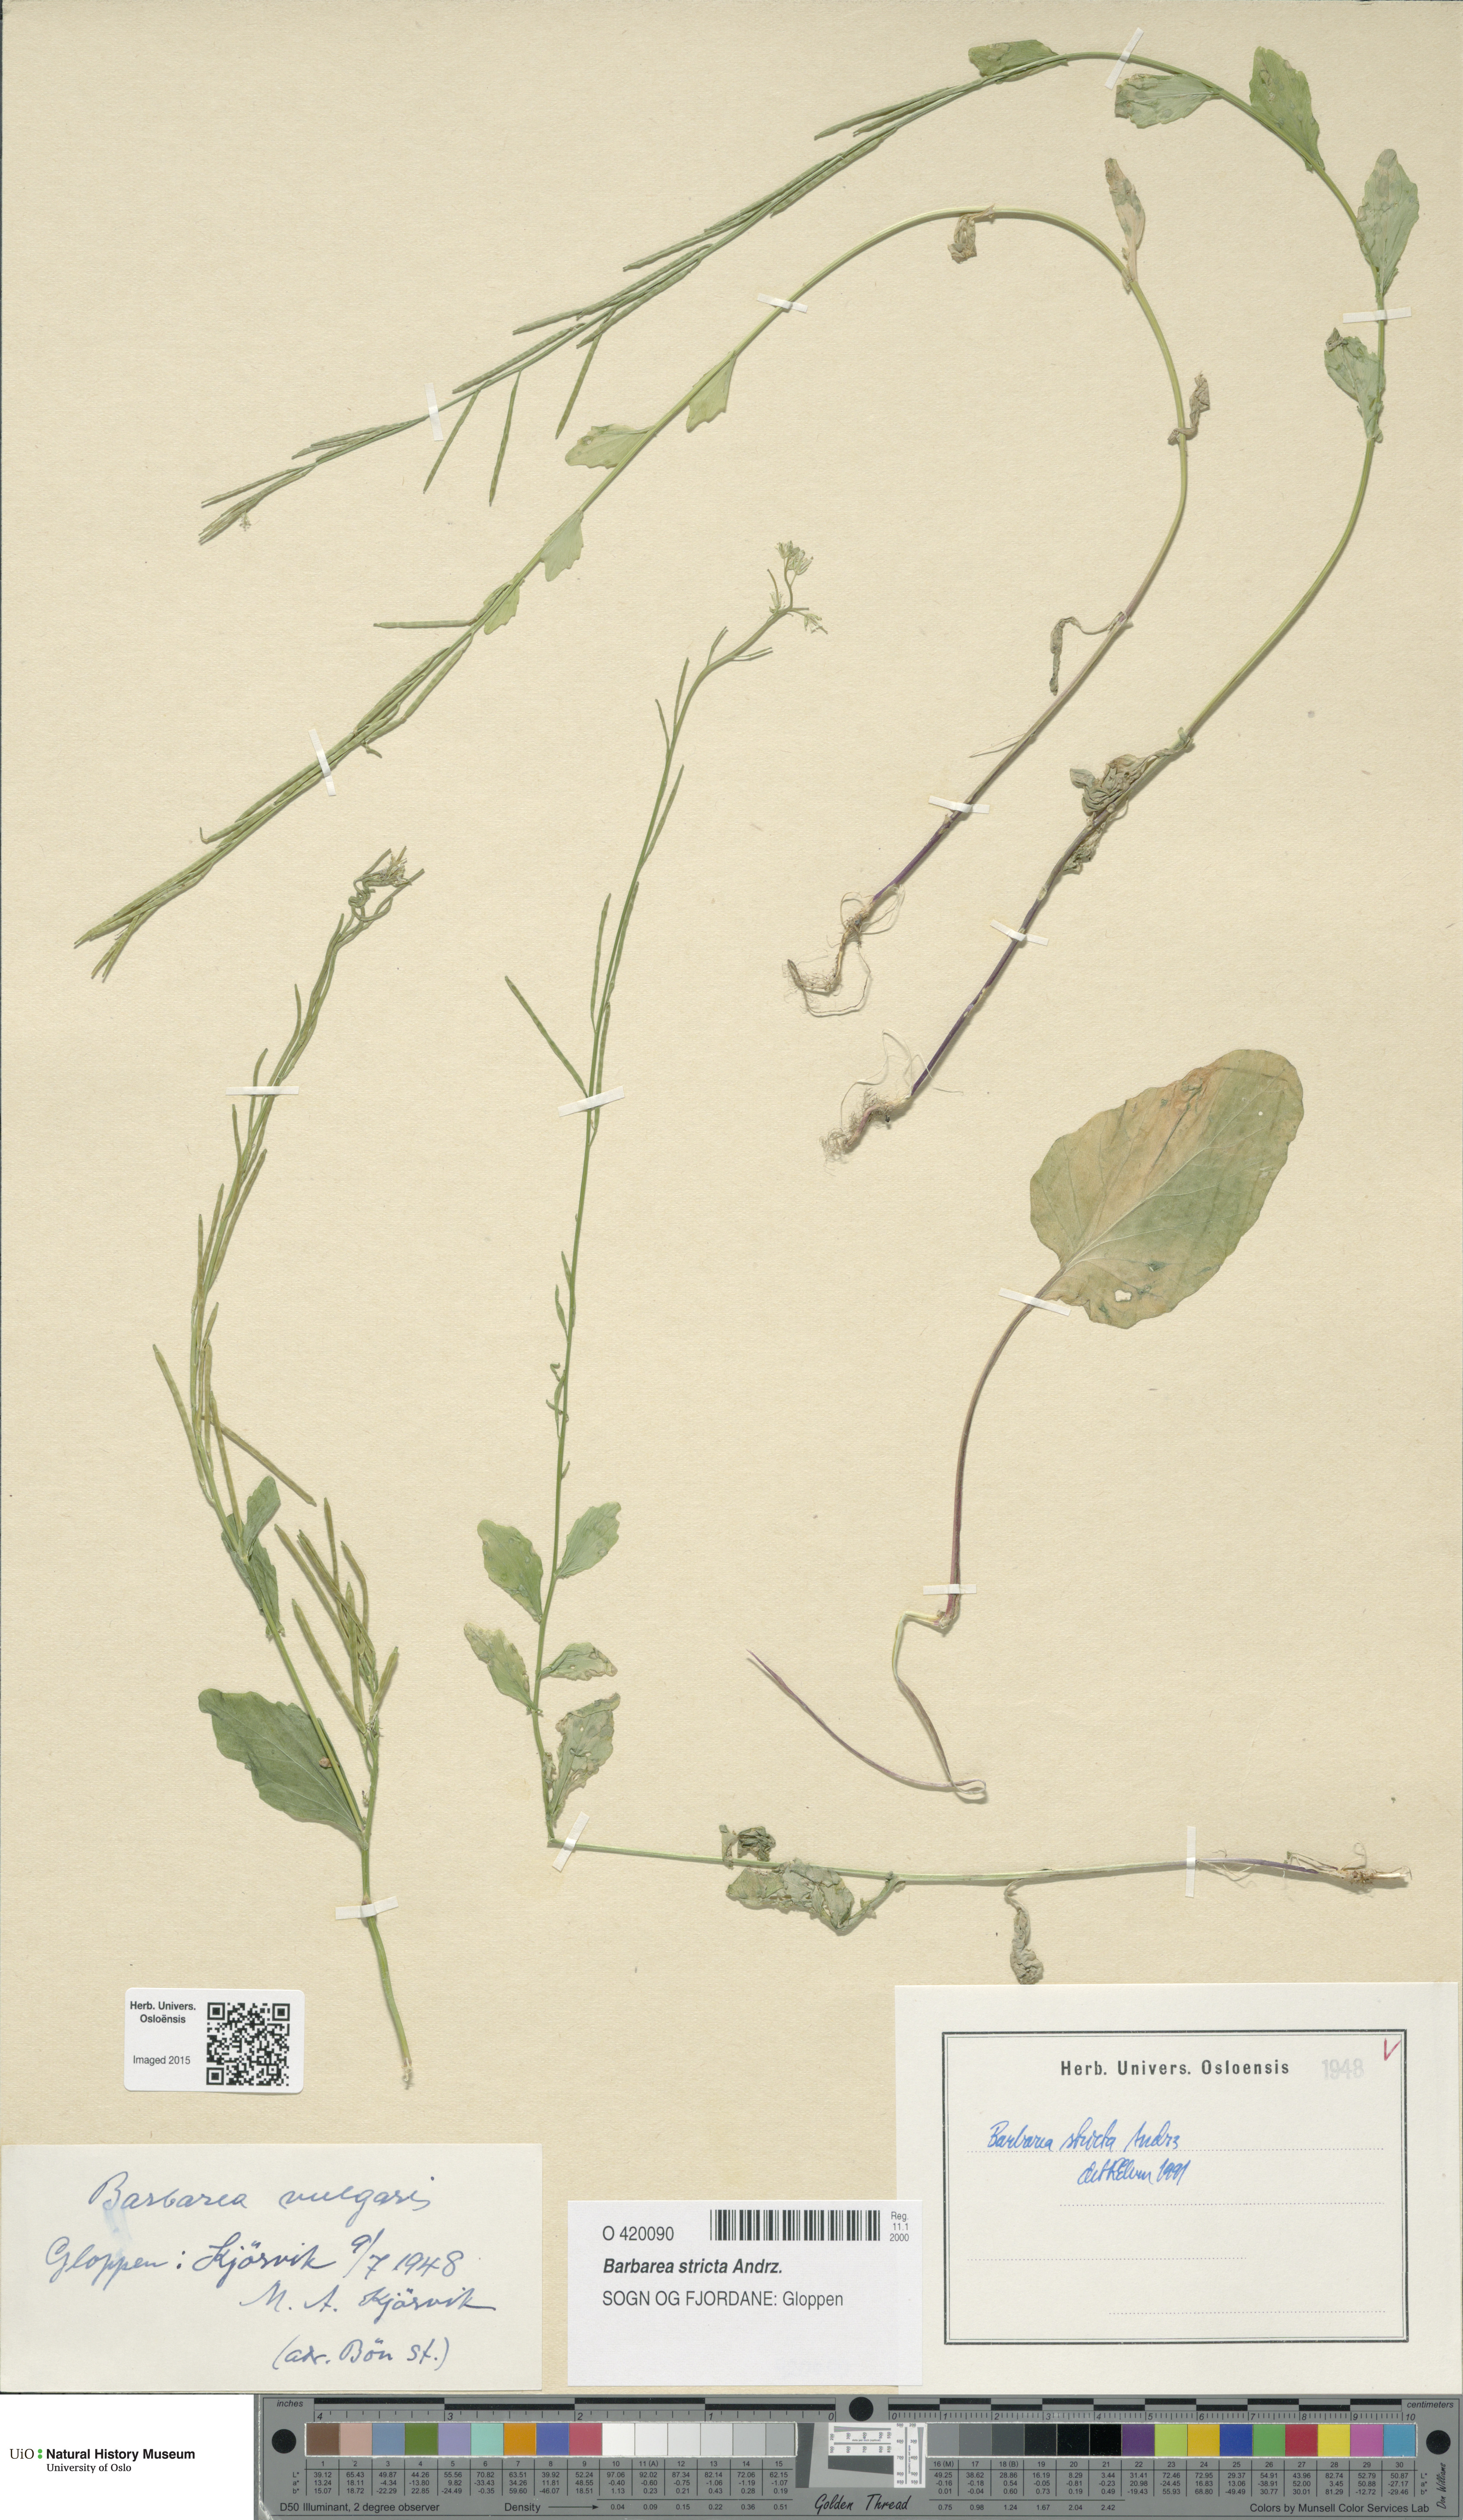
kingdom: Plantae
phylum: Tracheophyta
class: Magnoliopsida
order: Brassicales
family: Brassicaceae
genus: Barbarea
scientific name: Barbarea stricta
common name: Small-flowered winter-cress
